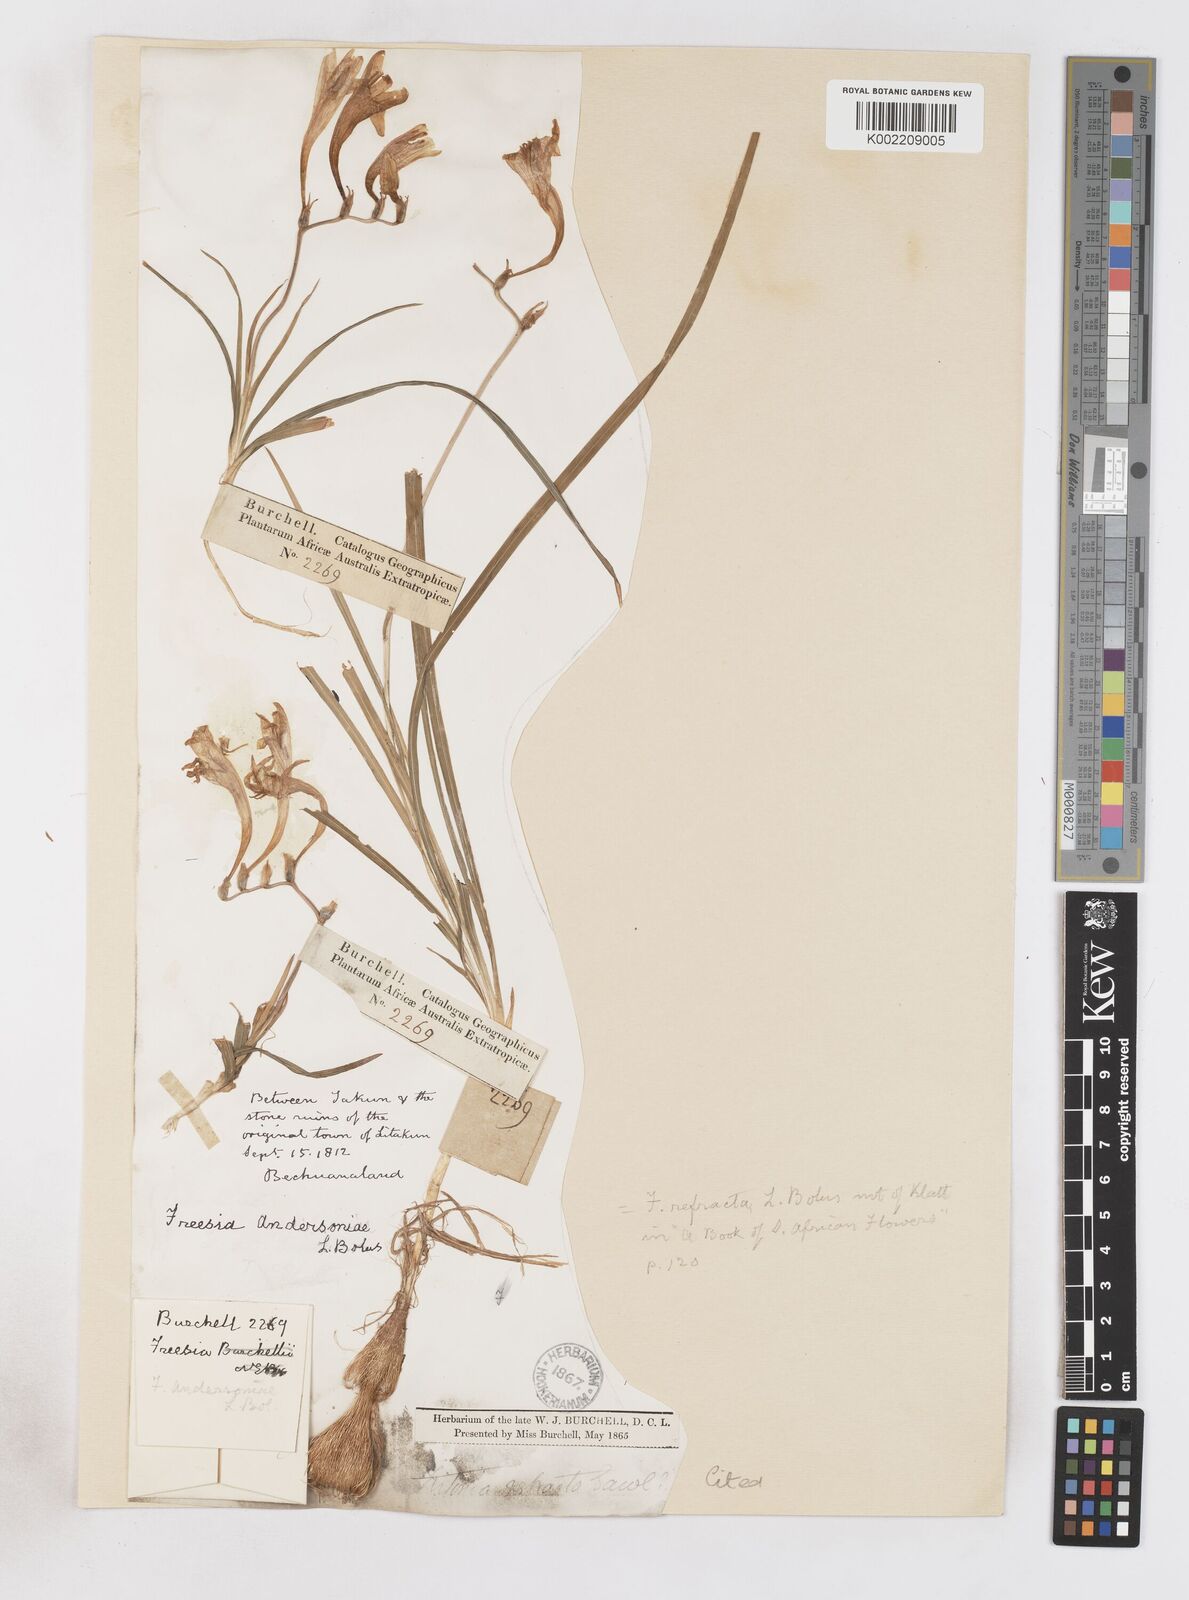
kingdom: Plantae
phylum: Tracheophyta
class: Liliopsida
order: Asparagales
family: Iridaceae
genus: Freesia
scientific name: Freesia andersoniae
